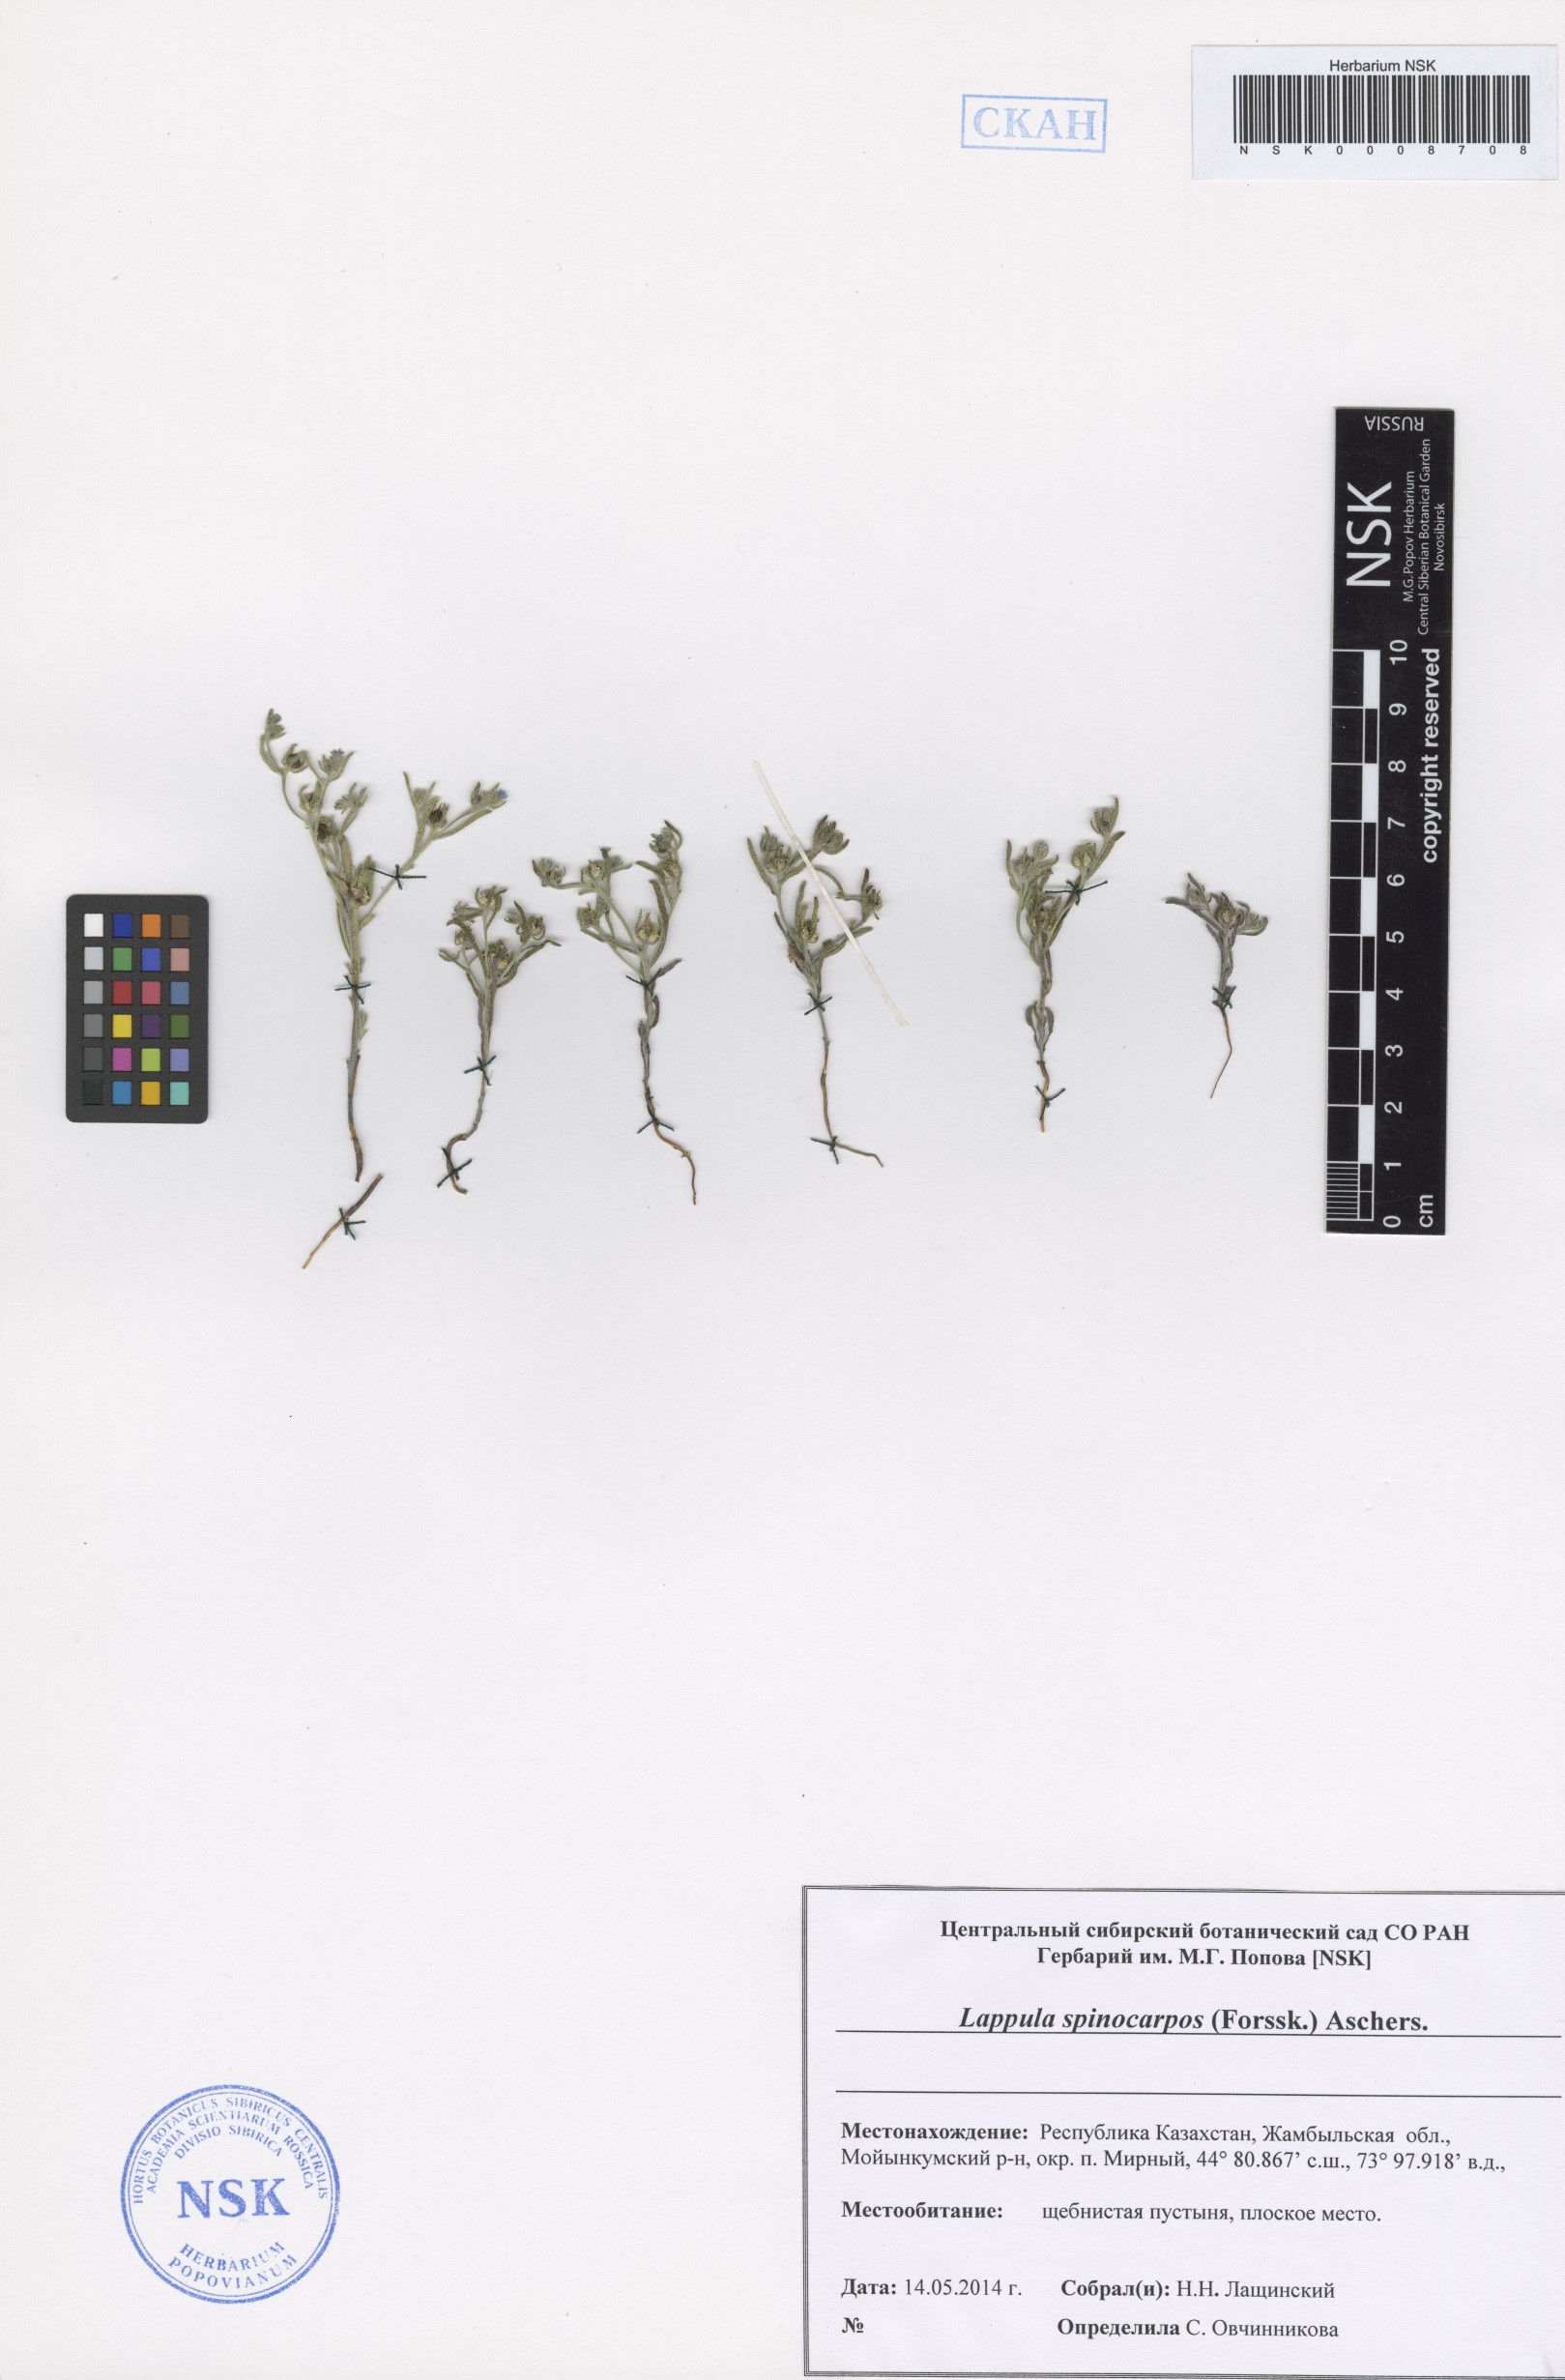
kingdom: Plantae
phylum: Tracheophyta
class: Magnoliopsida
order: Boraginales
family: Boraginaceae
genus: Lappula
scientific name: Lappula spinocarpos
